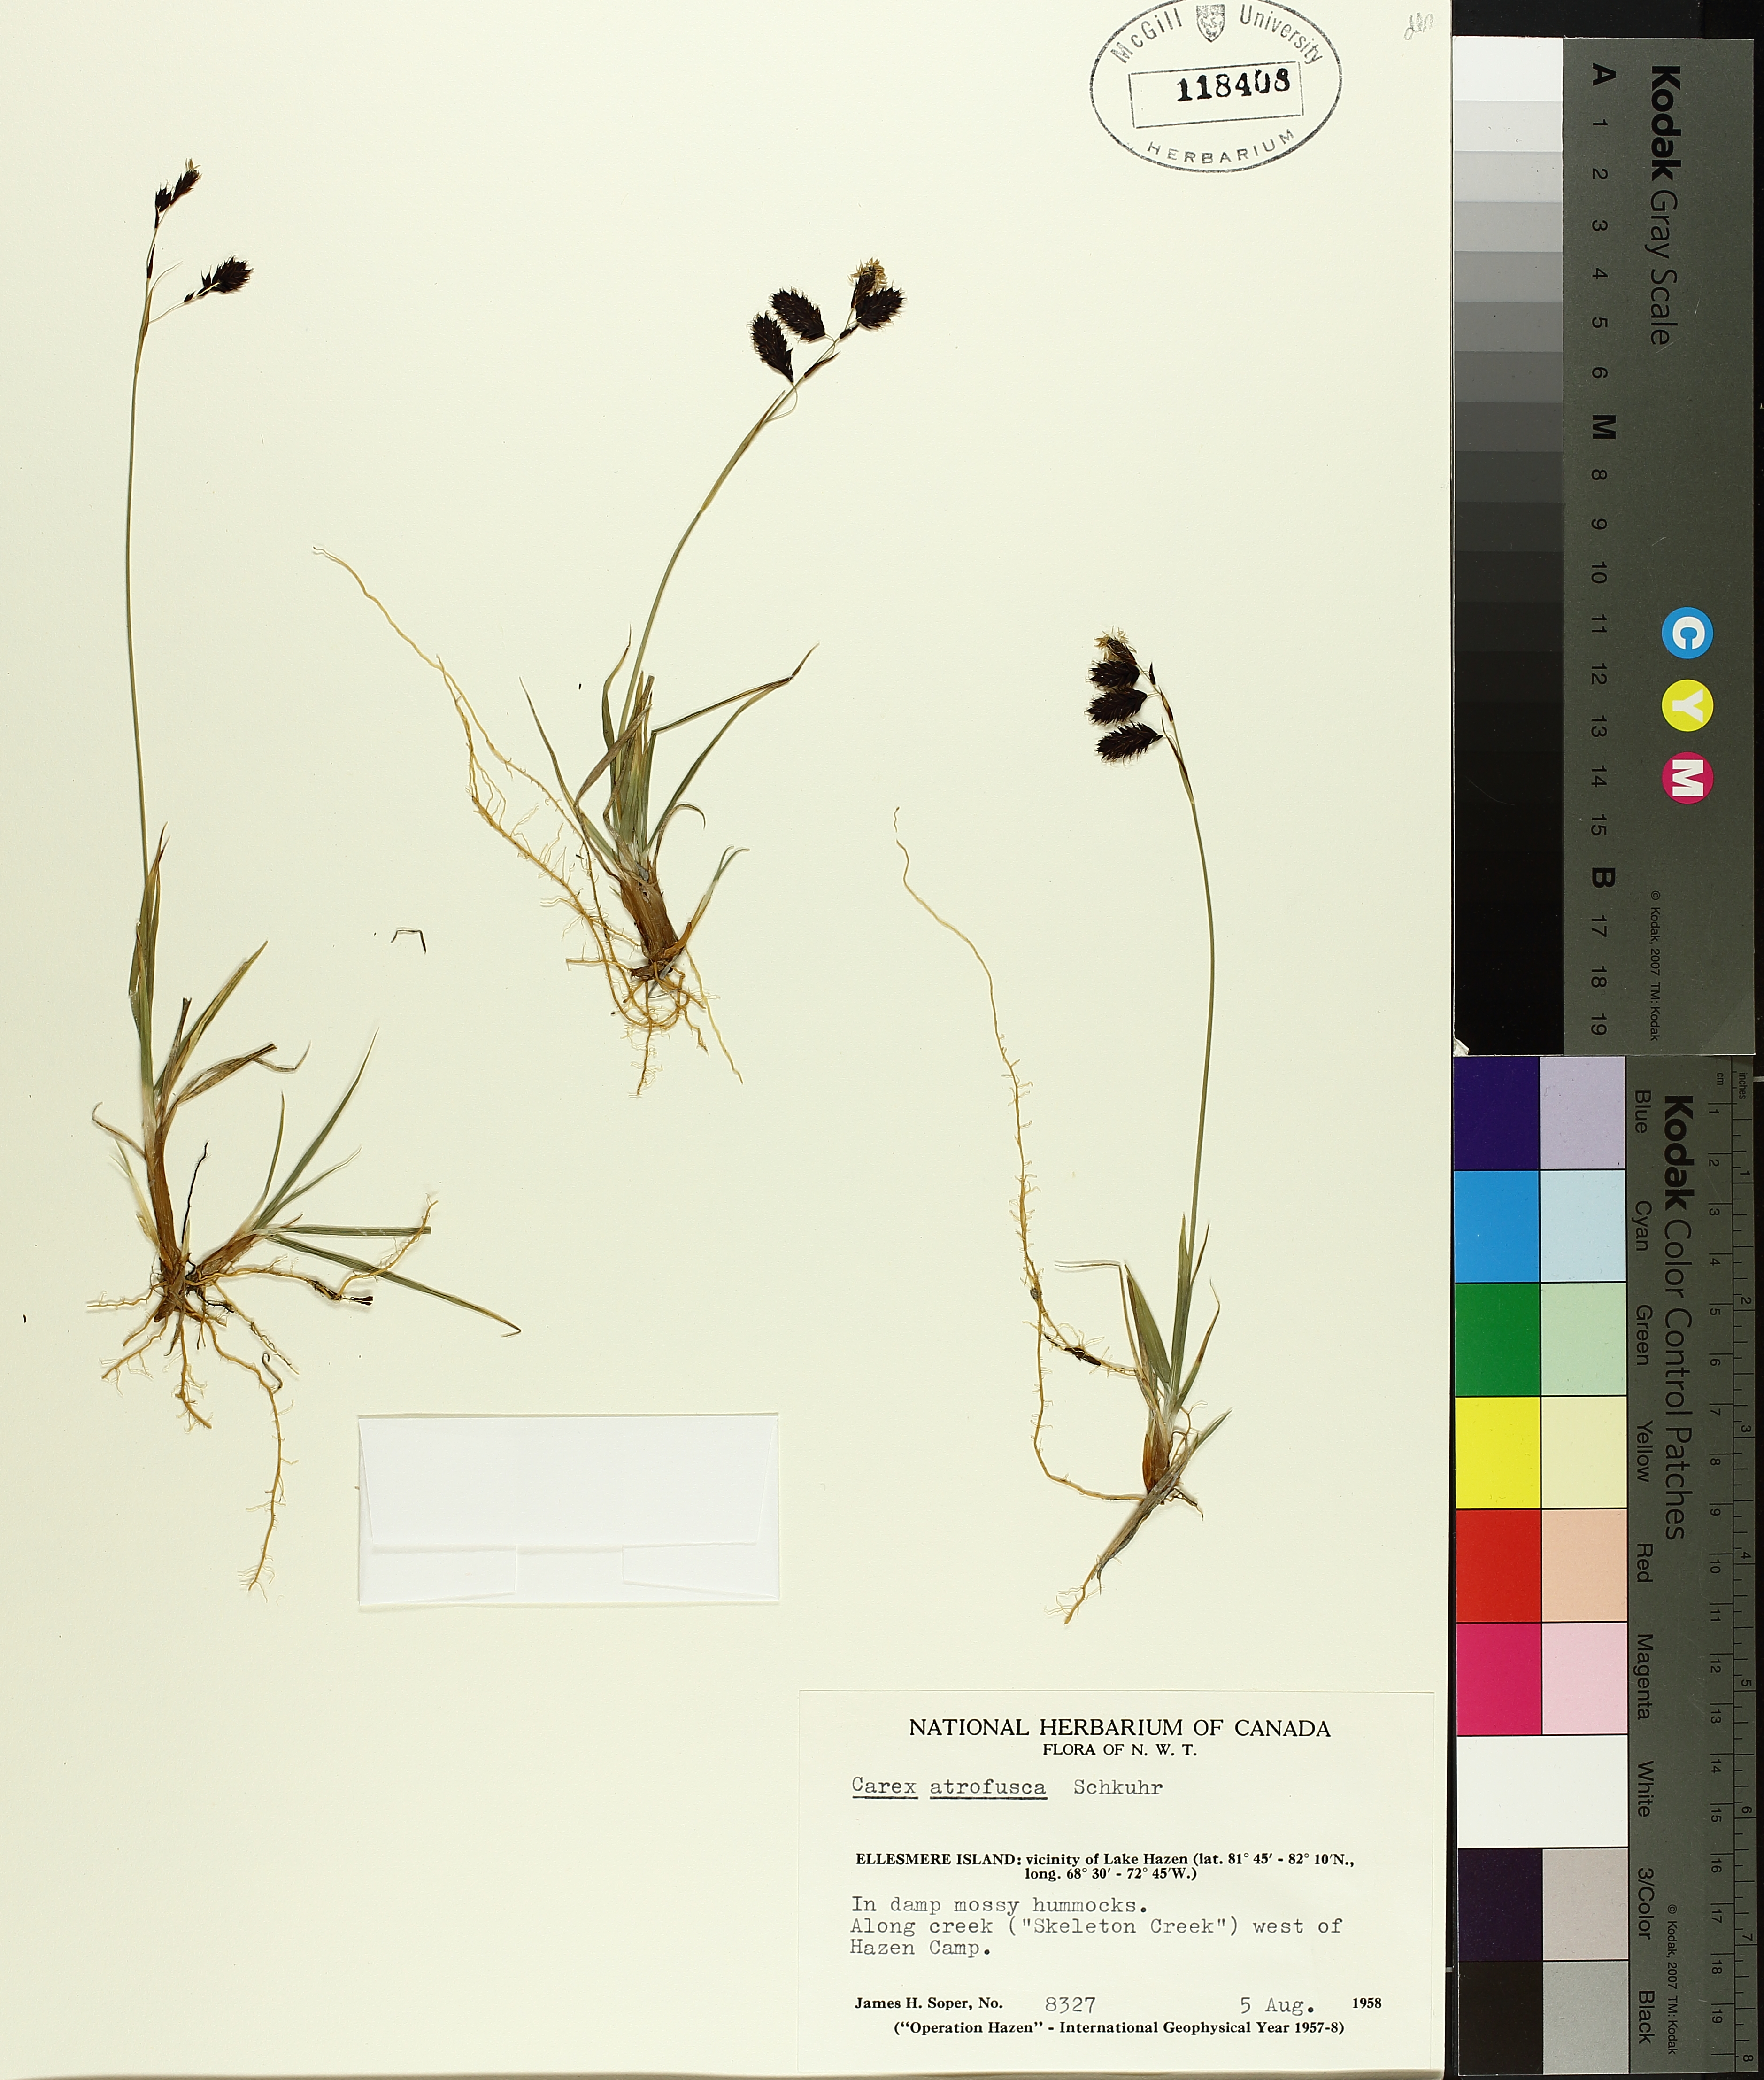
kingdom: Plantae
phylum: Tracheophyta
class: Liliopsida
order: Poales
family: Cyperaceae
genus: Carex
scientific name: Carex atrofusca
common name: Scorched alpine-sedge
